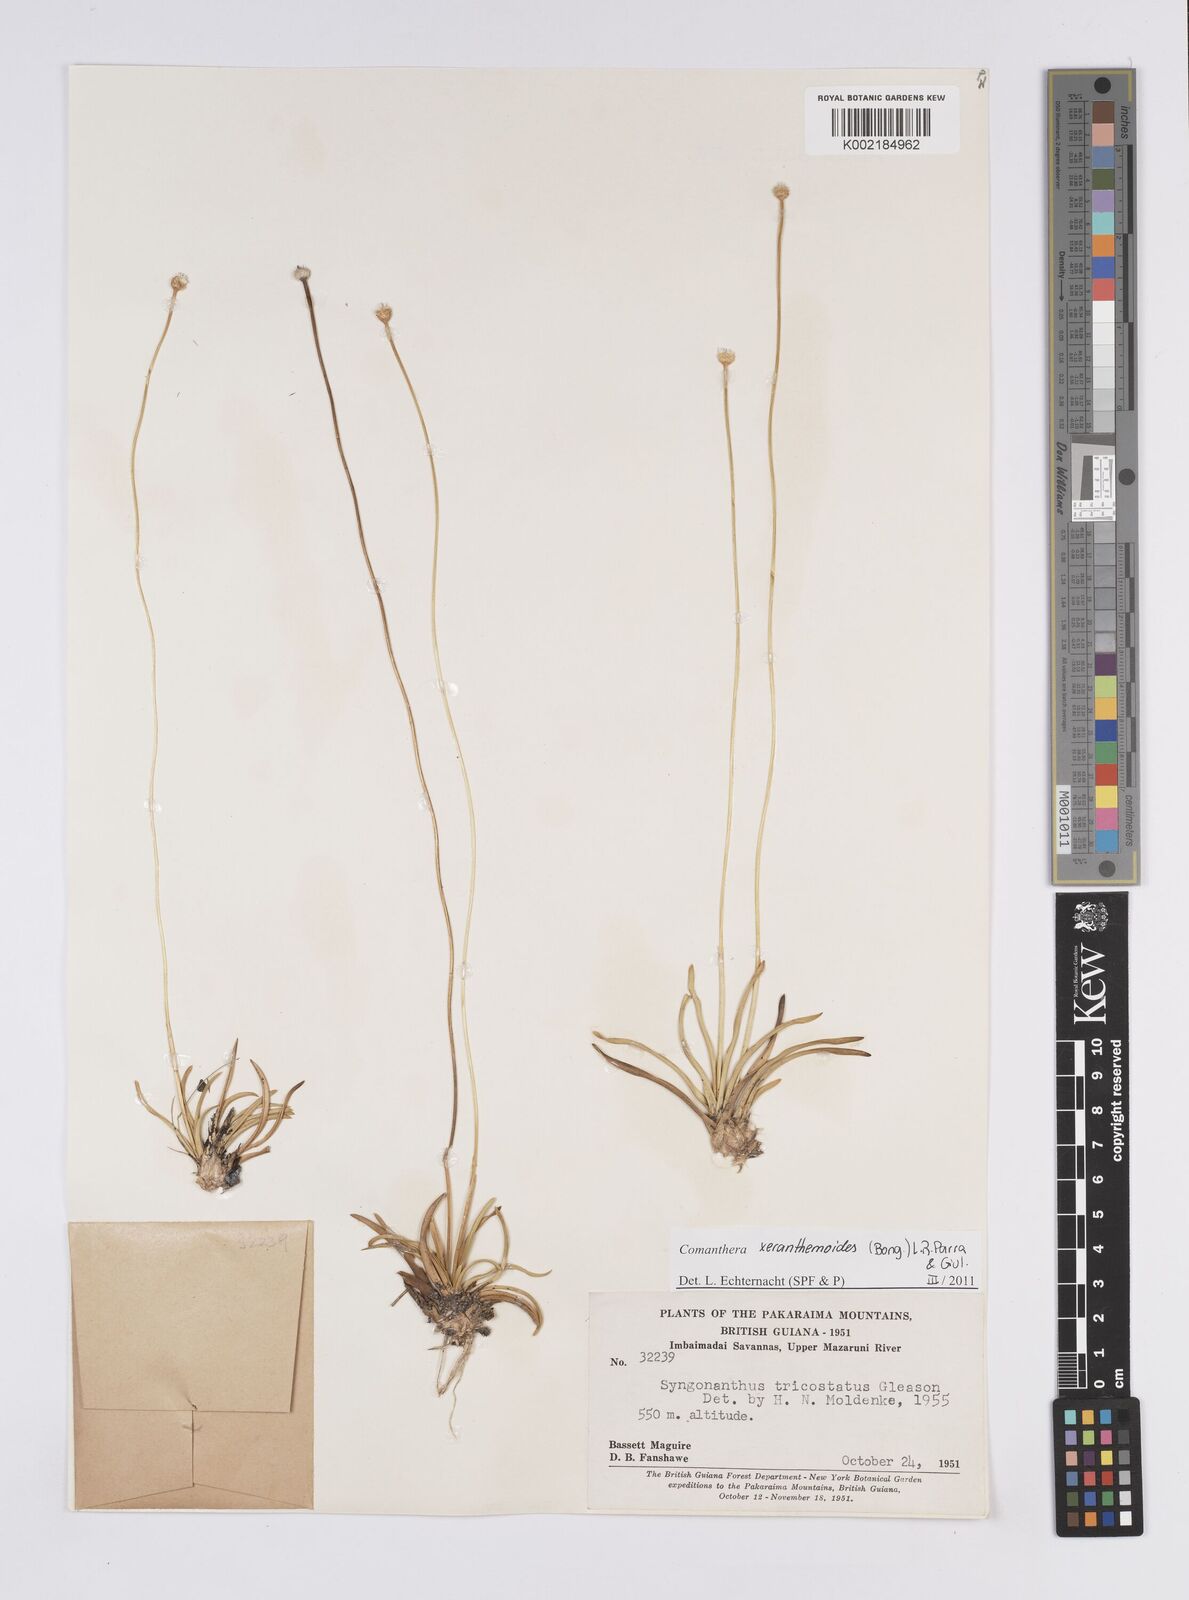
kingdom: Plantae
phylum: Tracheophyta
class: Liliopsida
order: Poales
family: Eriocaulaceae
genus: Comanthera
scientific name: Comanthera xeranthemoides
